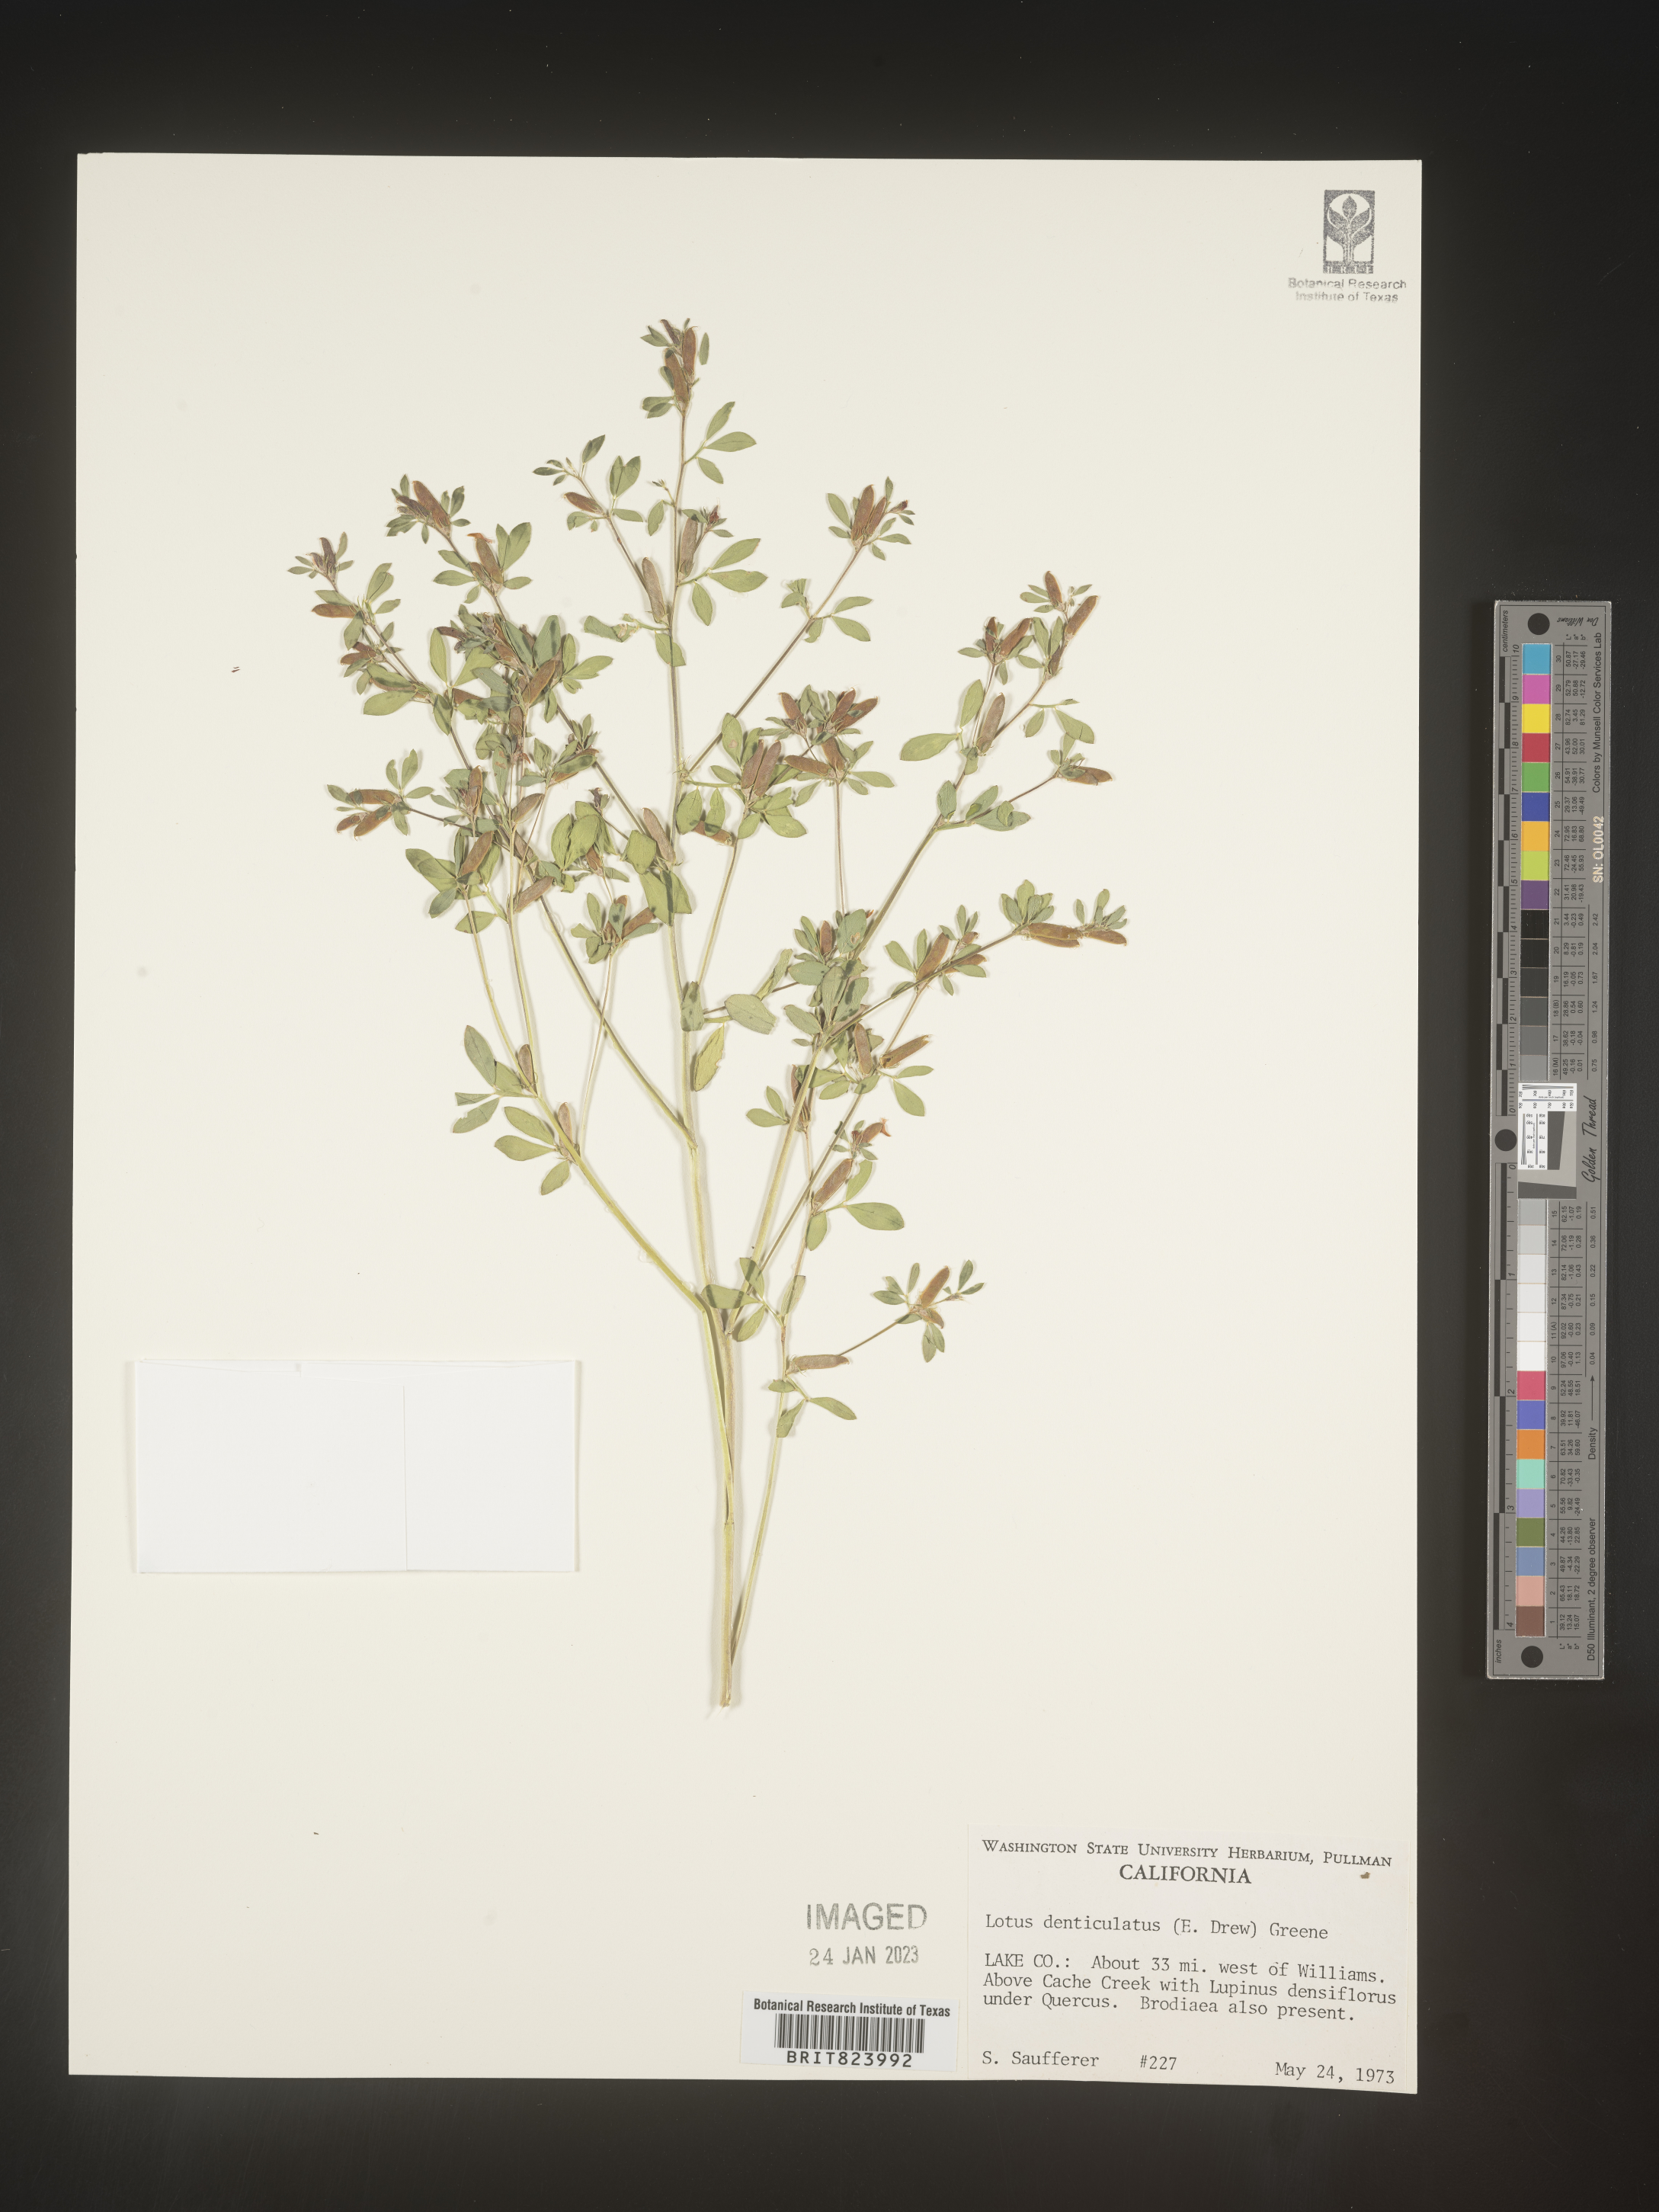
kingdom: Plantae
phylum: Tracheophyta
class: Magnoliopsida
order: Fabales
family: Fabaceae
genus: Lotus
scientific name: Lotus
